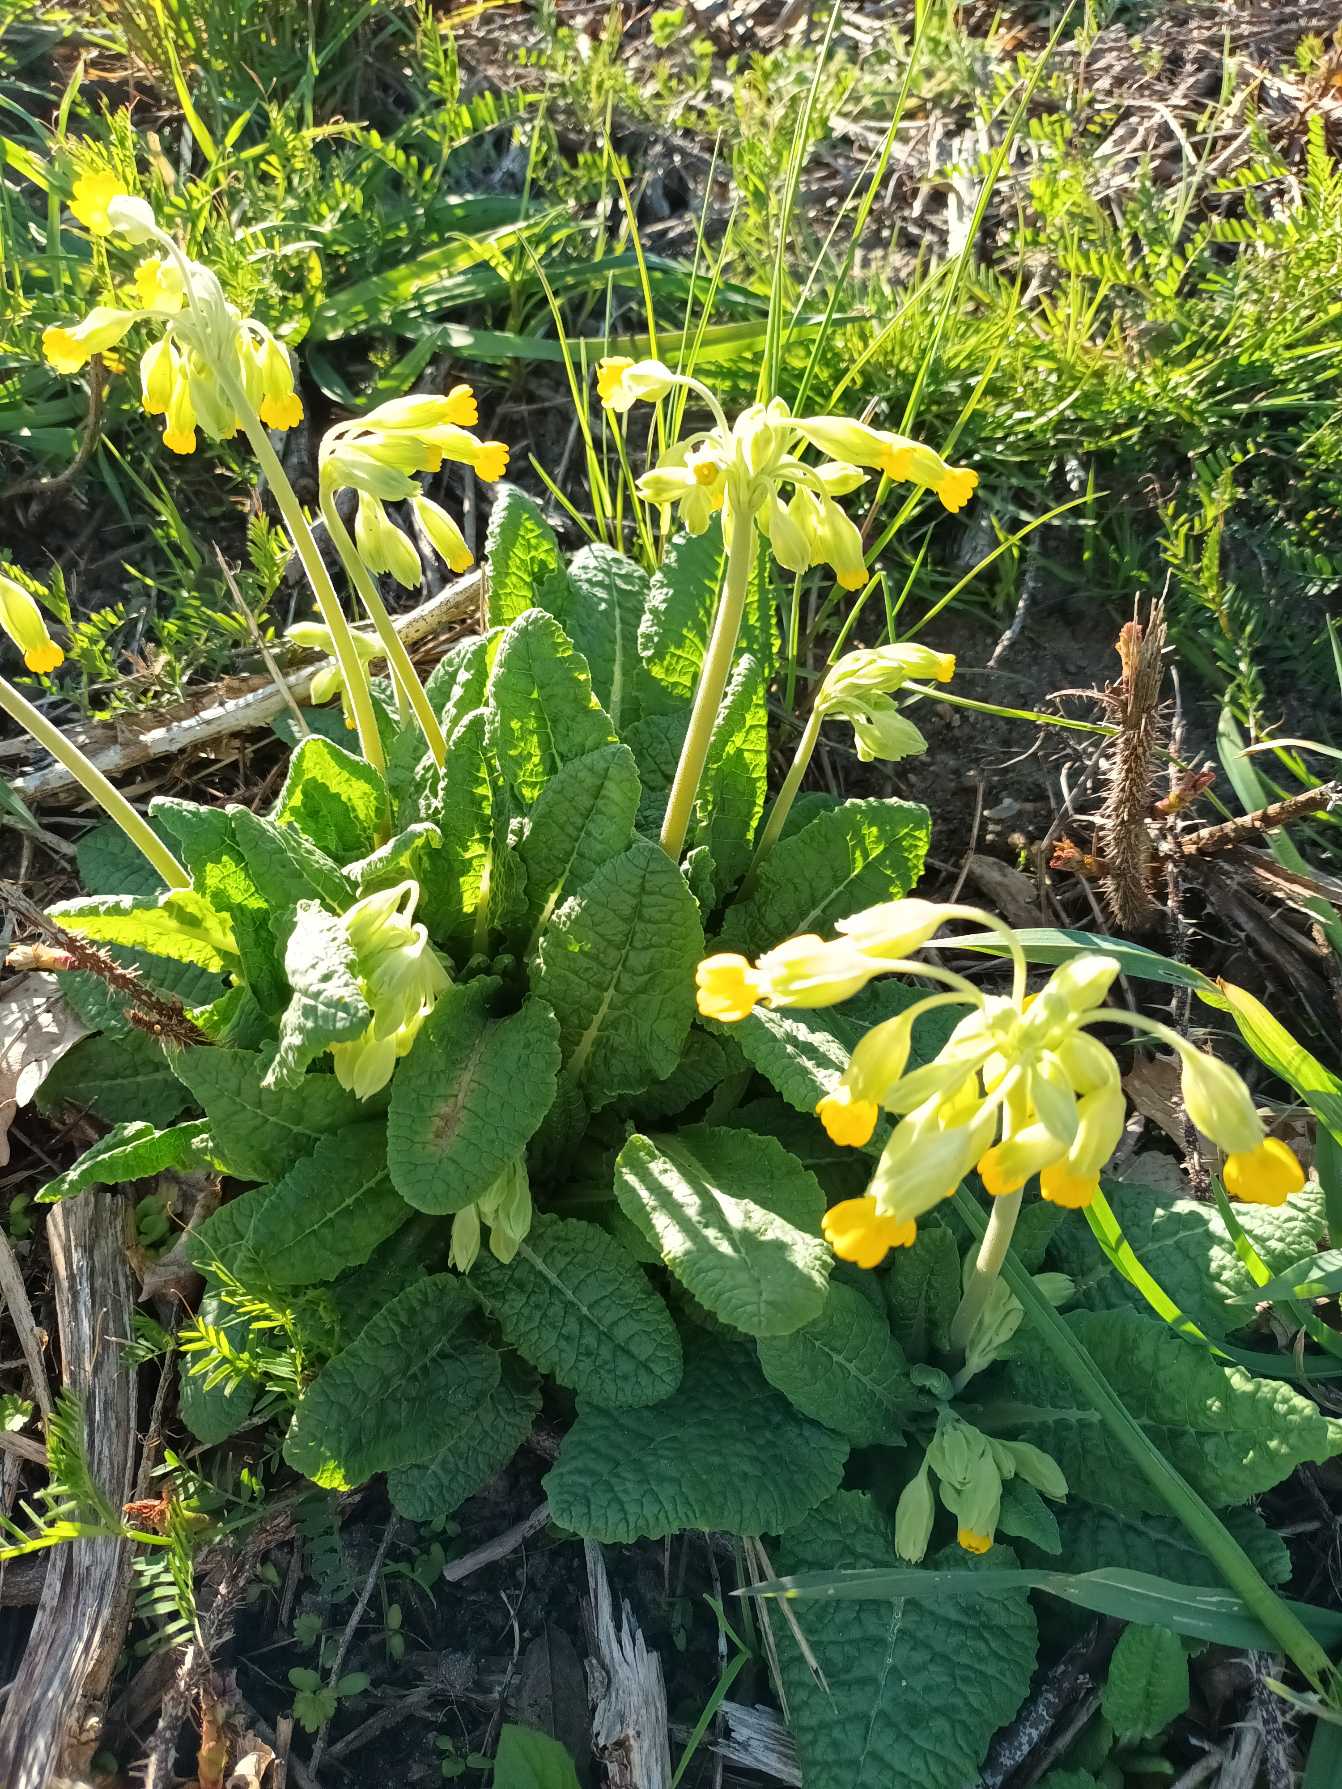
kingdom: Plantae
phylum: Tracheophyta
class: Magnoliopsida
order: Ericales
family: Primulaceae
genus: Primula
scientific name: Primula veris
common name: Hulkravet kodriver
